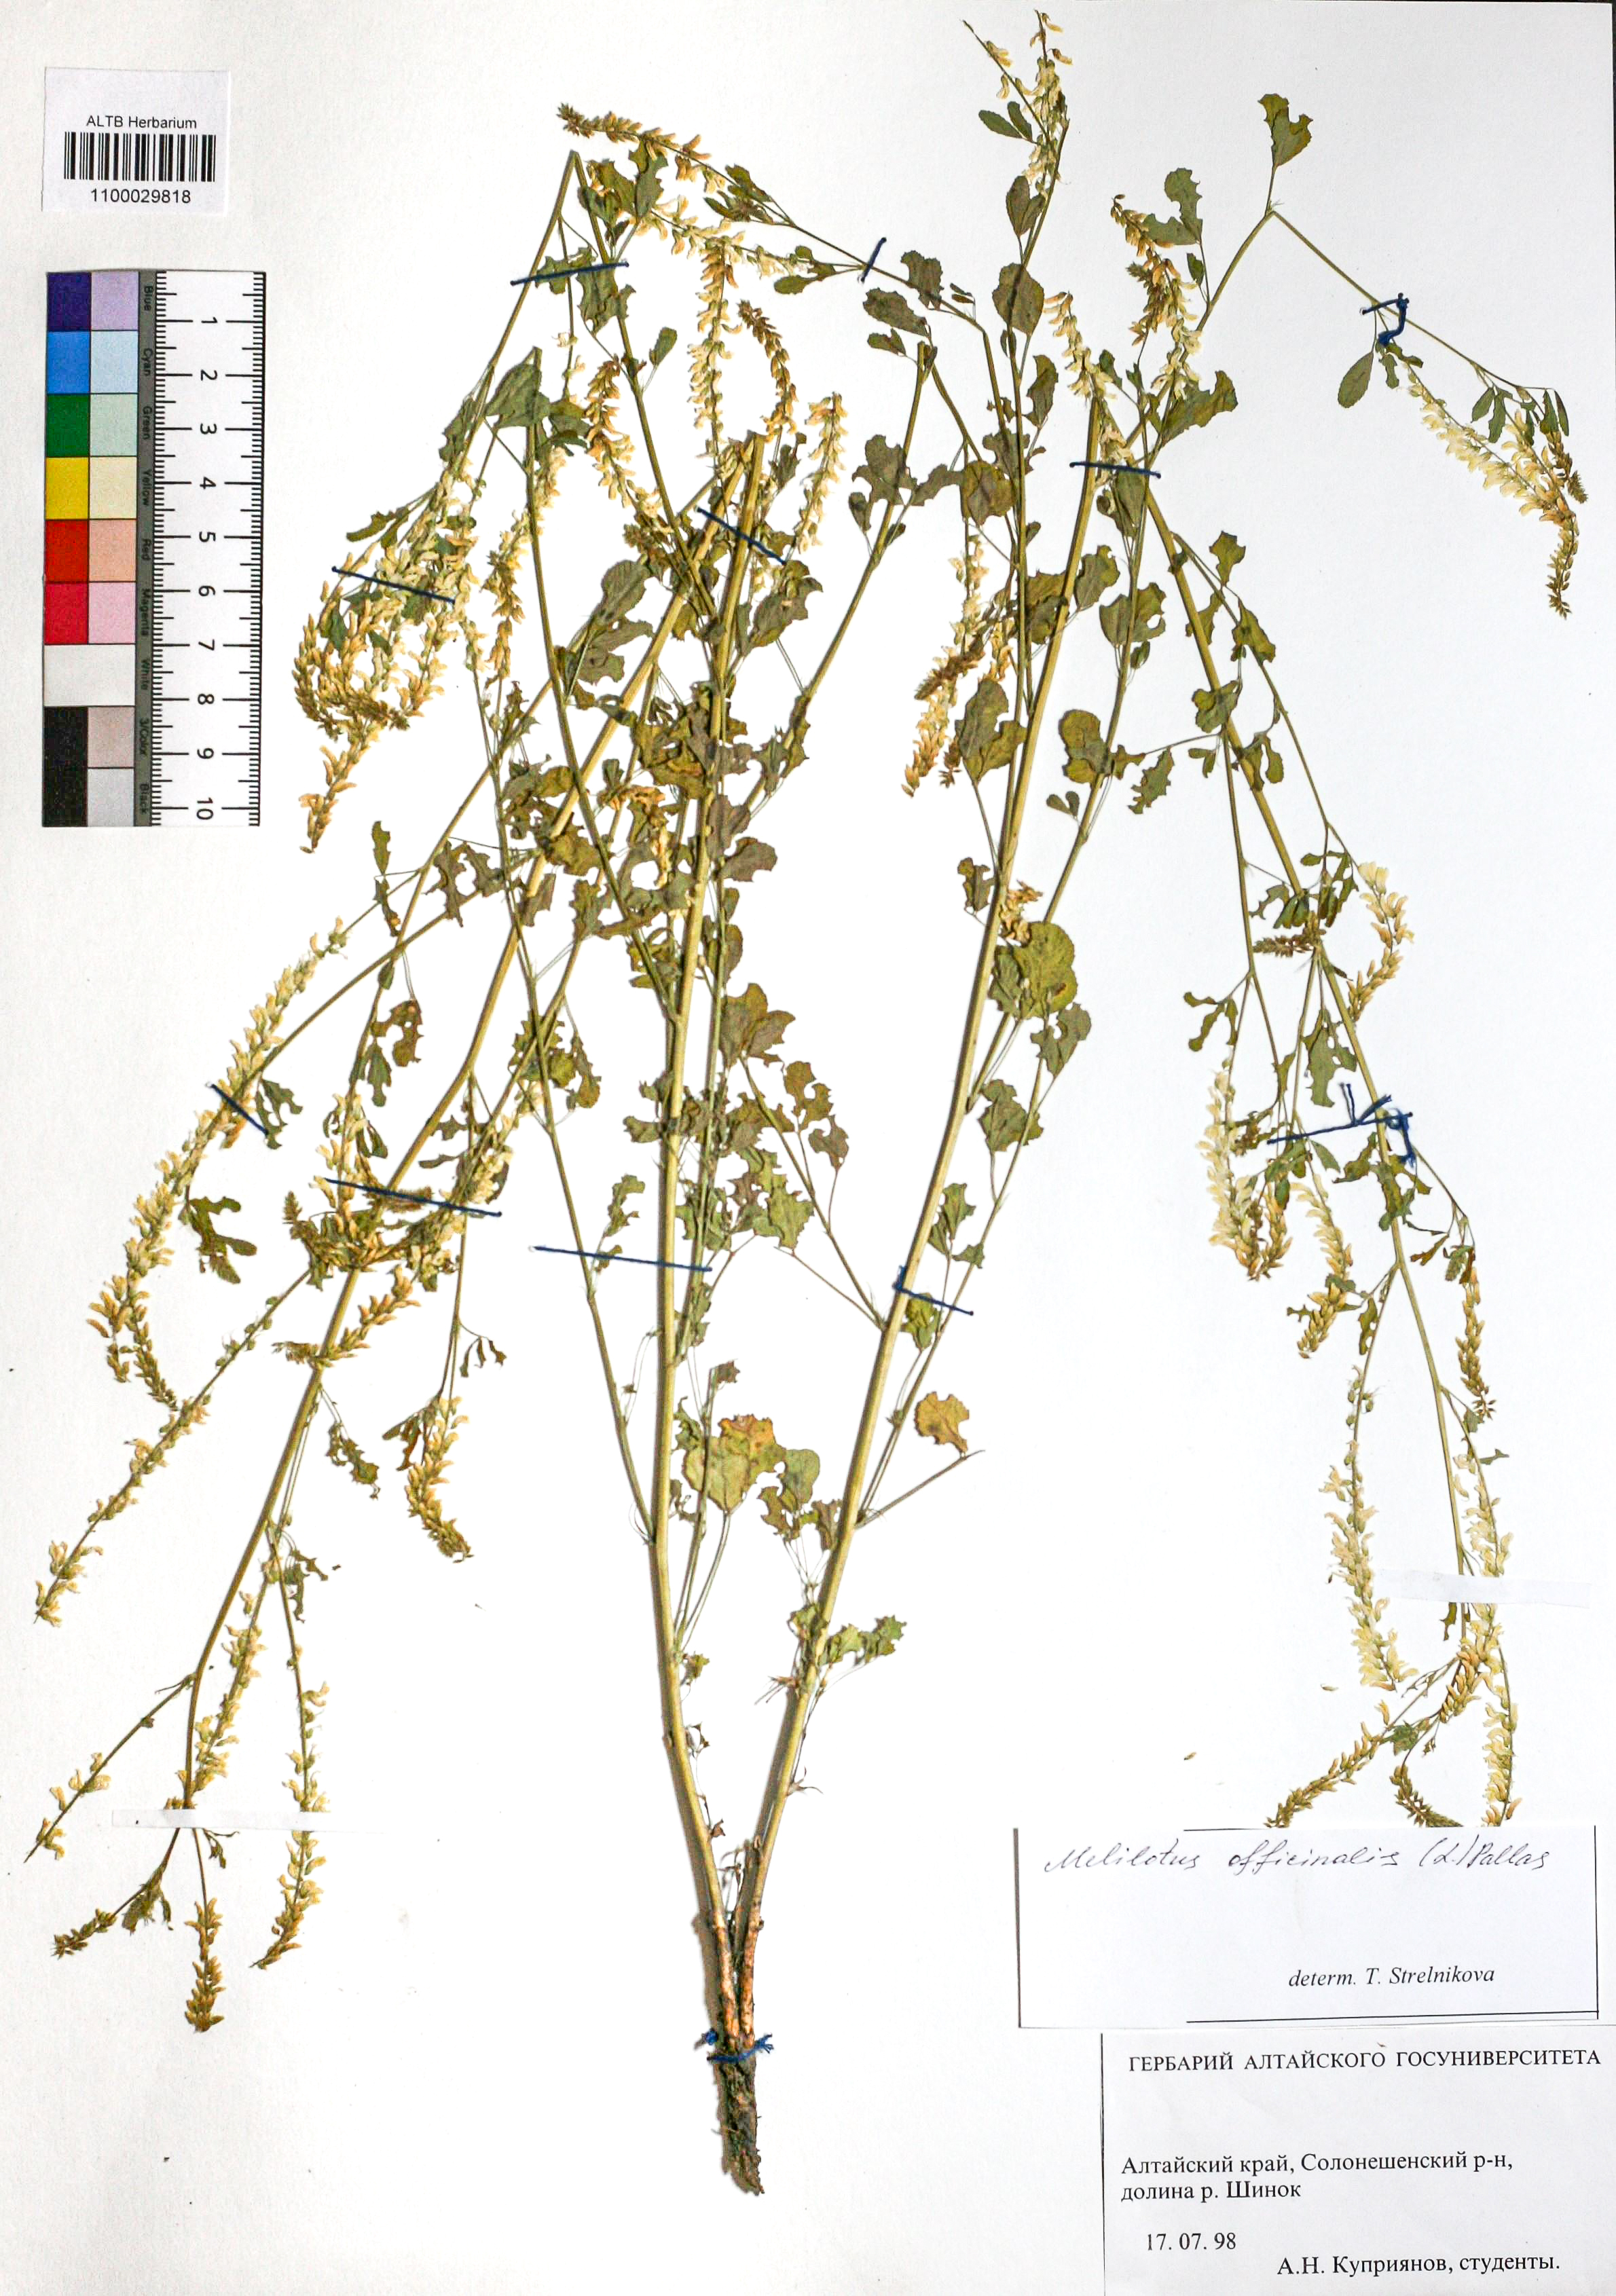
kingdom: Plantae
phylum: Tracheophyta
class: Magnoliopsida
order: Fabales
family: Fabaceae
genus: Melilotus
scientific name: Melilotus officinalis
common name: Sweetclover
